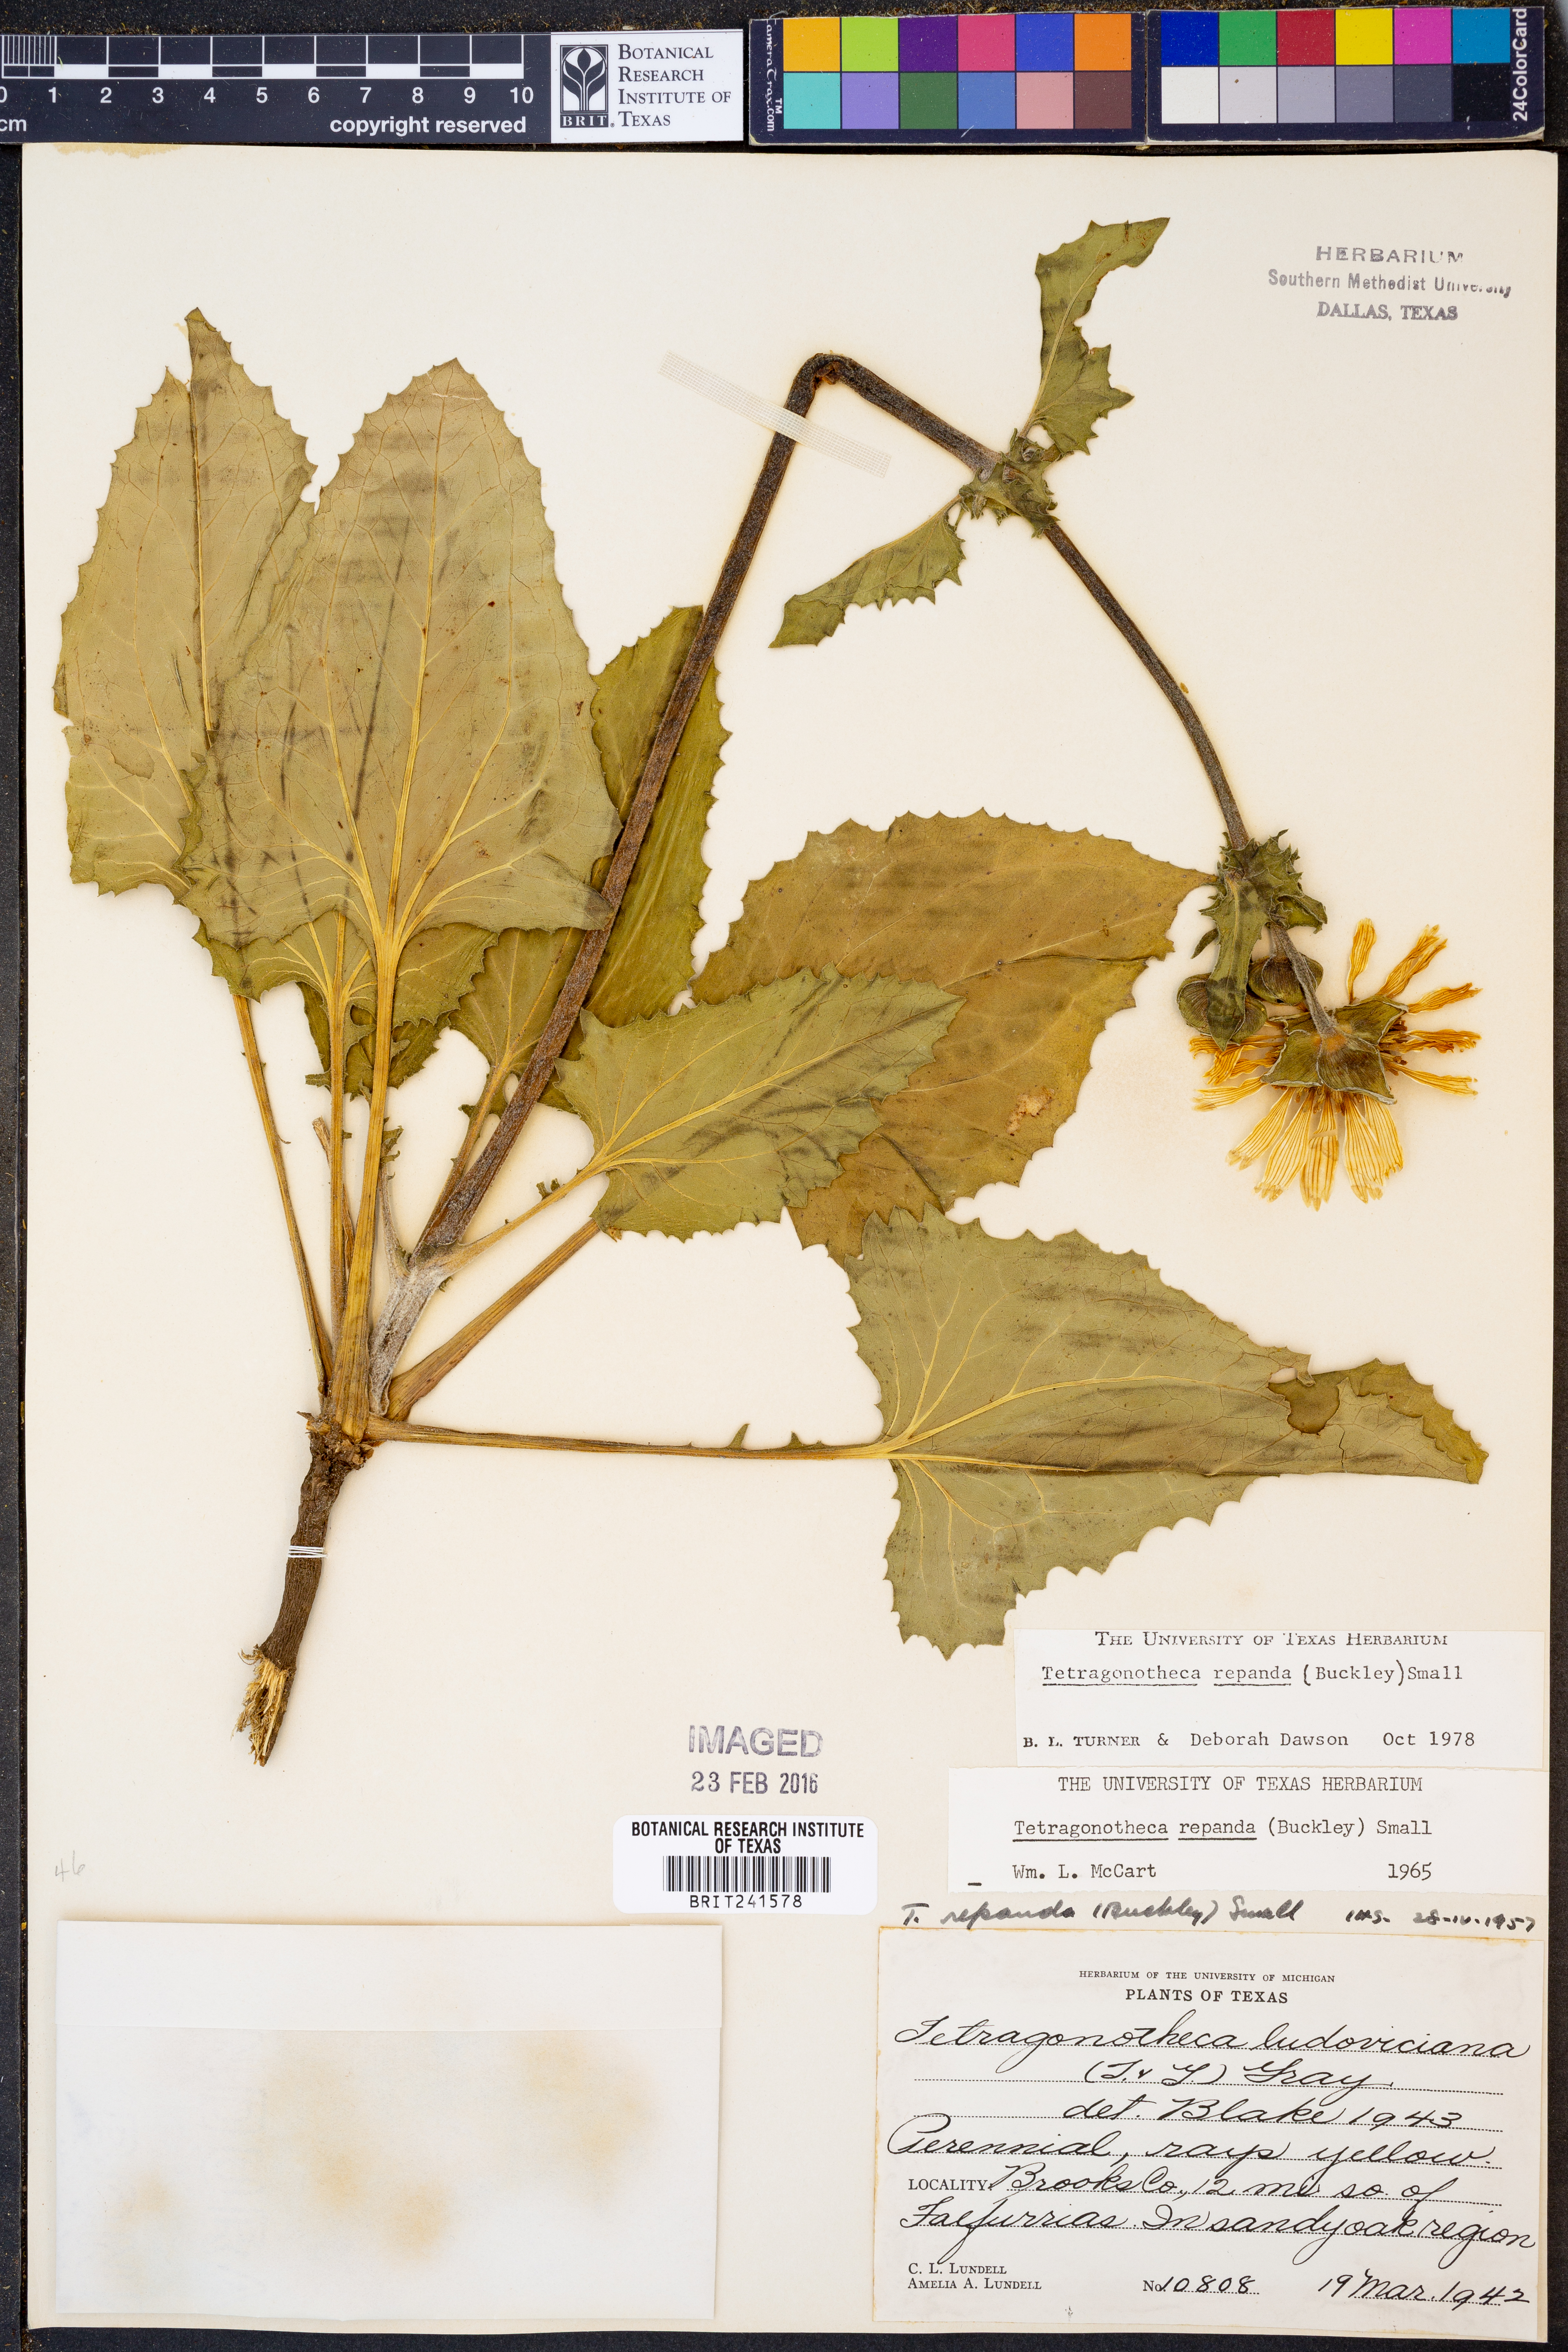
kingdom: Plantae
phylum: Tracheophyta
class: Magnoliopsida
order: Asterales
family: Asteraceae
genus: Tetragonotheca
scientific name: Tetragonotheca repanda
